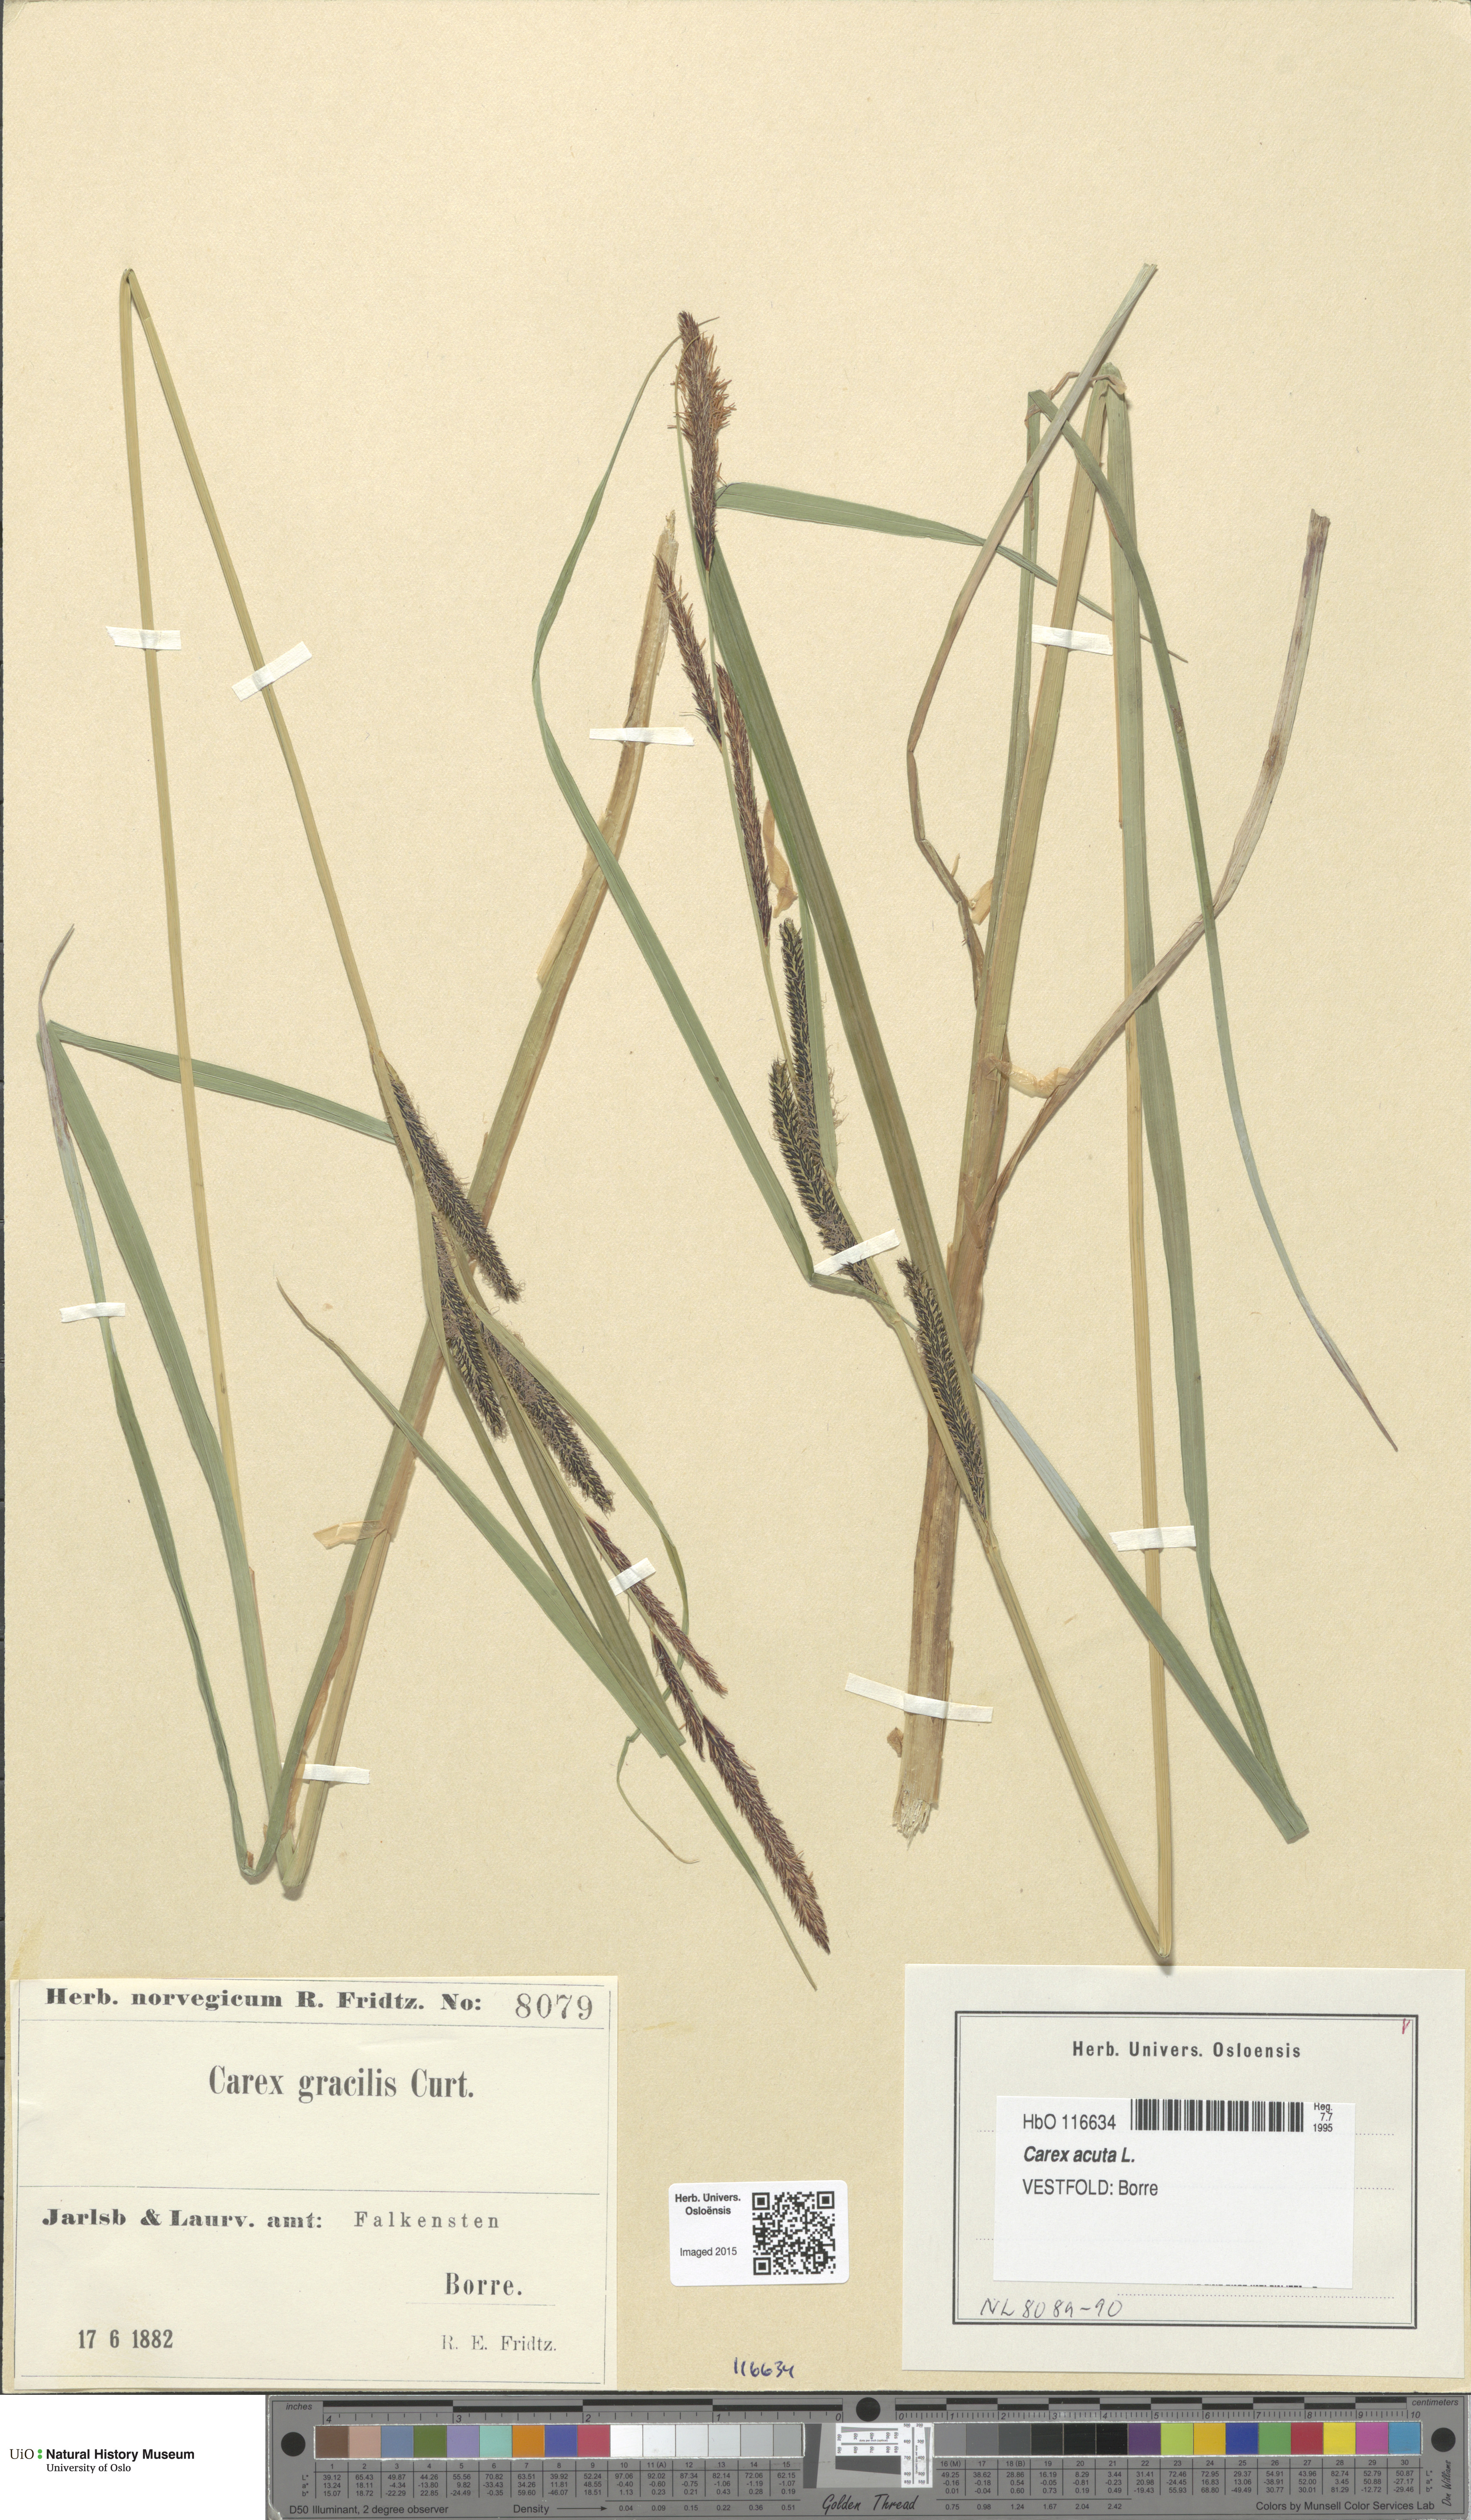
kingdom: Plantae
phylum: Tracheophyta
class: Liliopsida
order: Poales
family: Cyperaceae
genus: Carex
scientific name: Carex acuta
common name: Slender tufted-sedge
